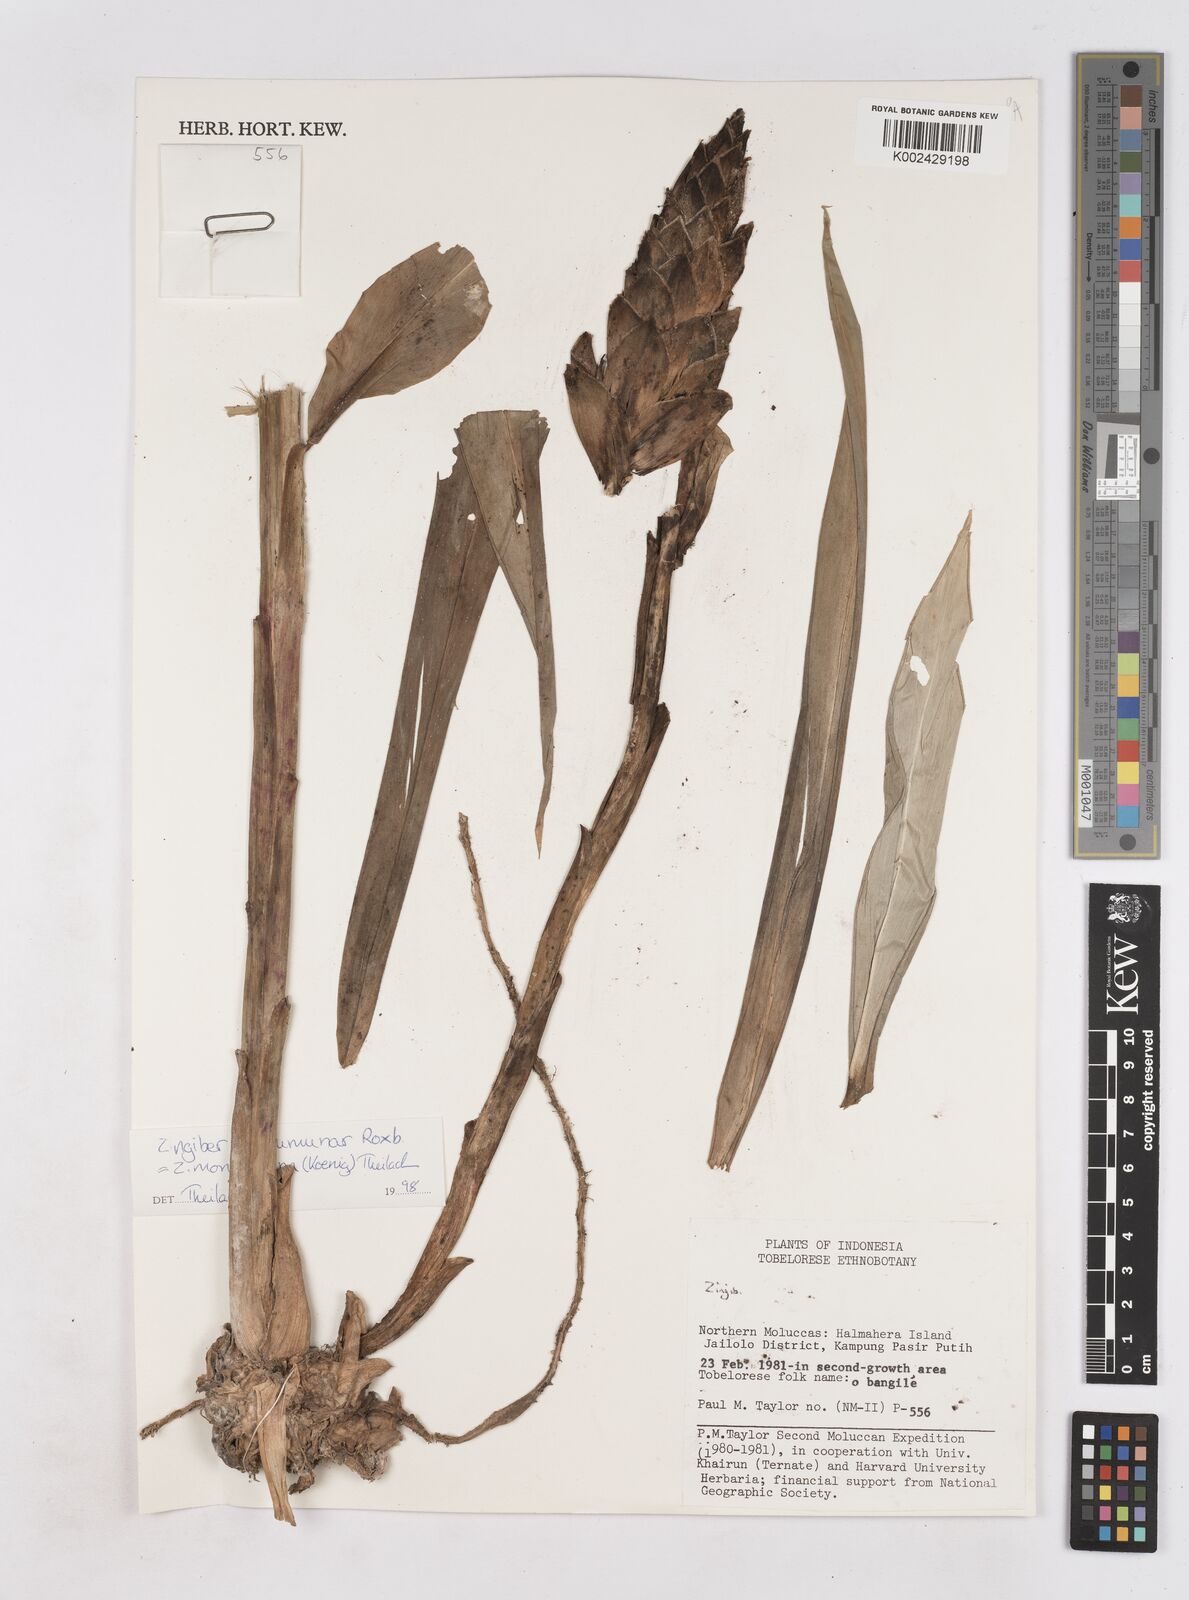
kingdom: Plantae
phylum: Tracheophyta
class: Liliopsida
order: Zingiberales
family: Zingiberaceae
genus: Zingiber
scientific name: Zingiber
